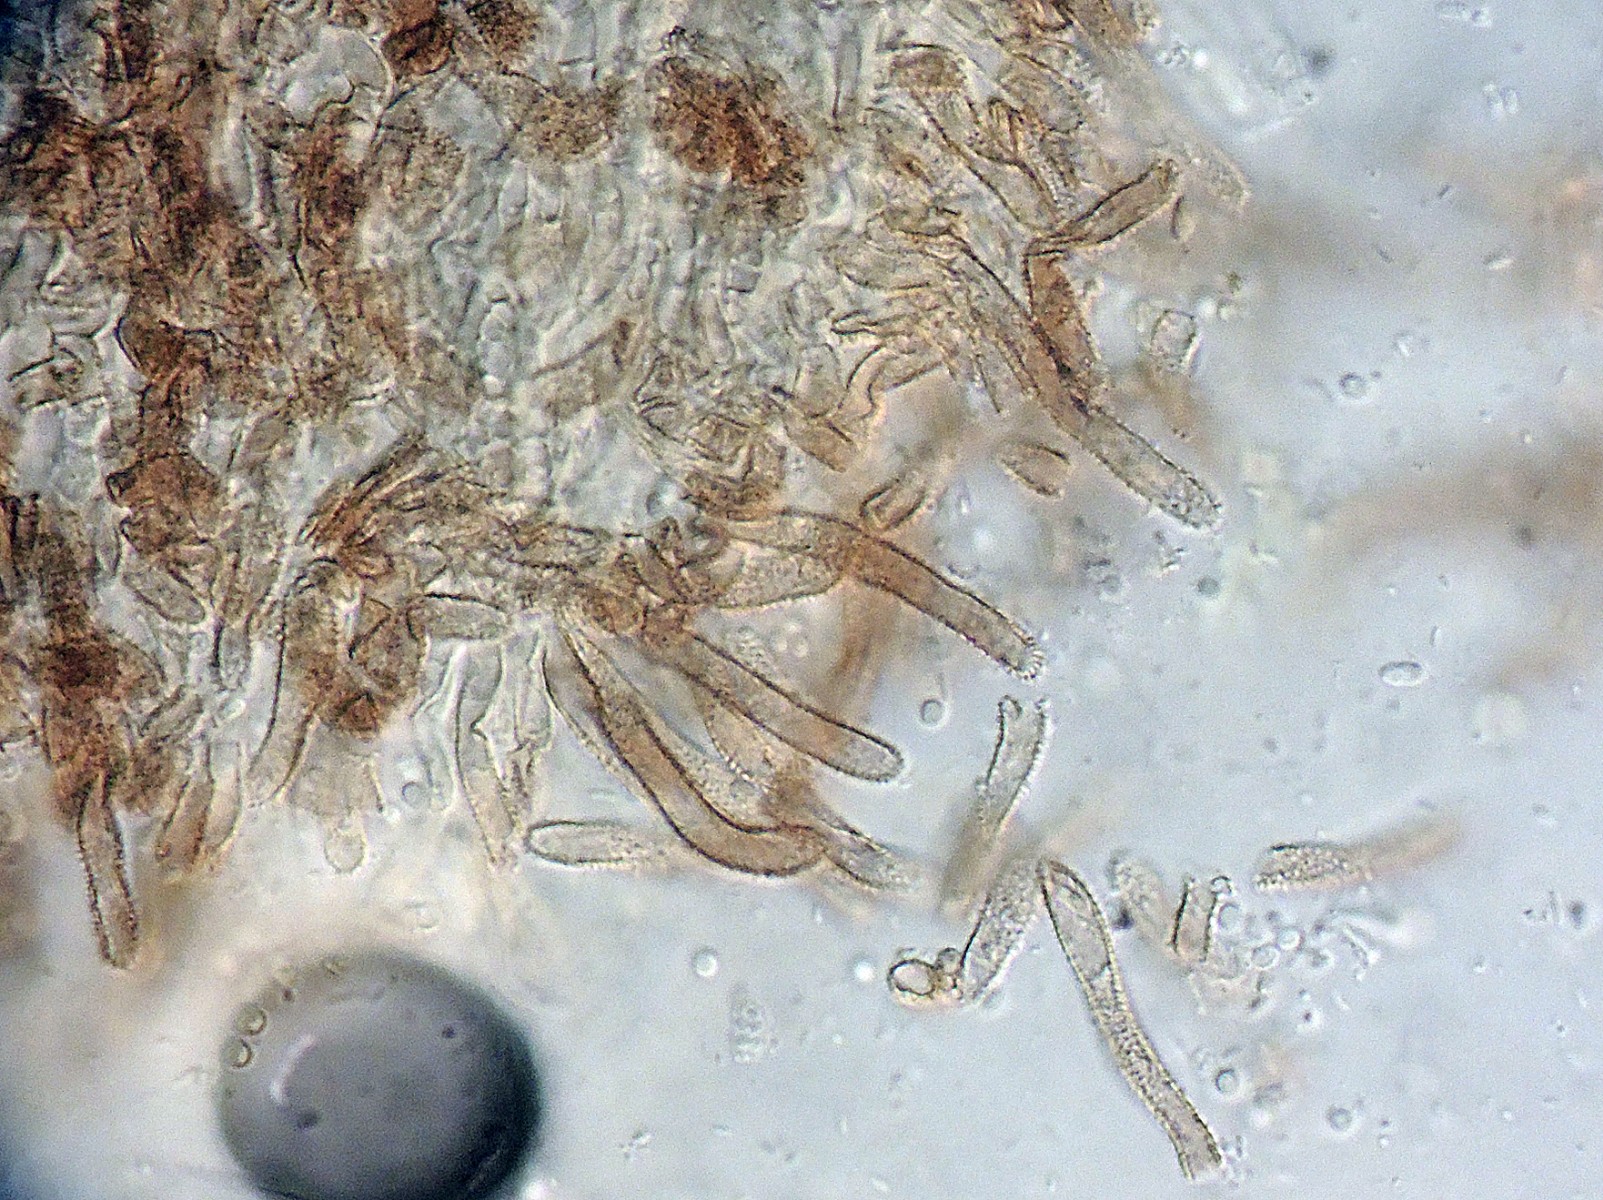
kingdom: Fungi
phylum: Ascomycota
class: Leotiomycetes
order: Helotiales
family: Hyphodiscaceae
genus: Fuscolachnum
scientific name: Fuscolachnum misellum
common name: brombærblad-sirskive
